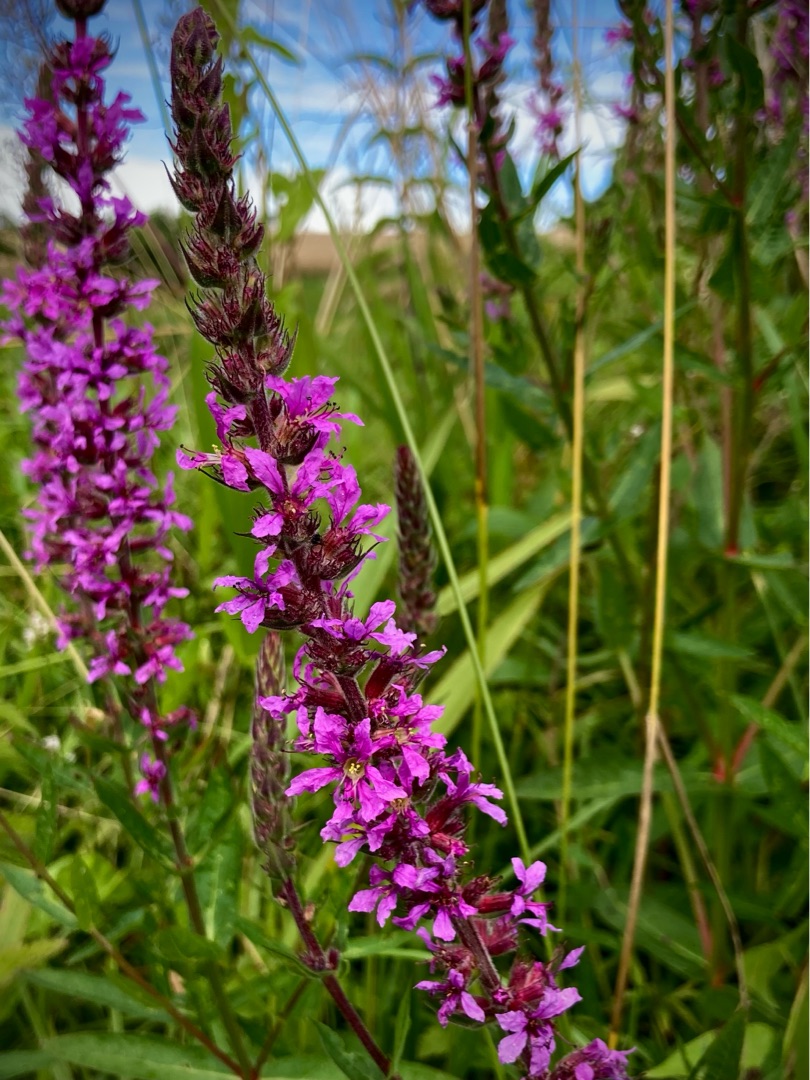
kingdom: Plantae
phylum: Tracheophyta
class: Magnoliopsida
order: Myrtales
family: Lythraceae
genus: Lythrum
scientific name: Lythrum salicaria
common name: Kattehale
